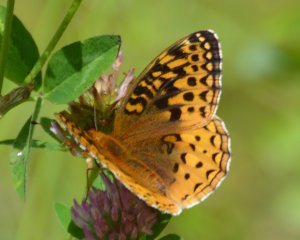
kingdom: Animalia
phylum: Arthropoda
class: Insecta
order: Lepidoptera
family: Nymphalidae
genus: Speyeria
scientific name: Speyeria cybele
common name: Great Spangled Fritillary
